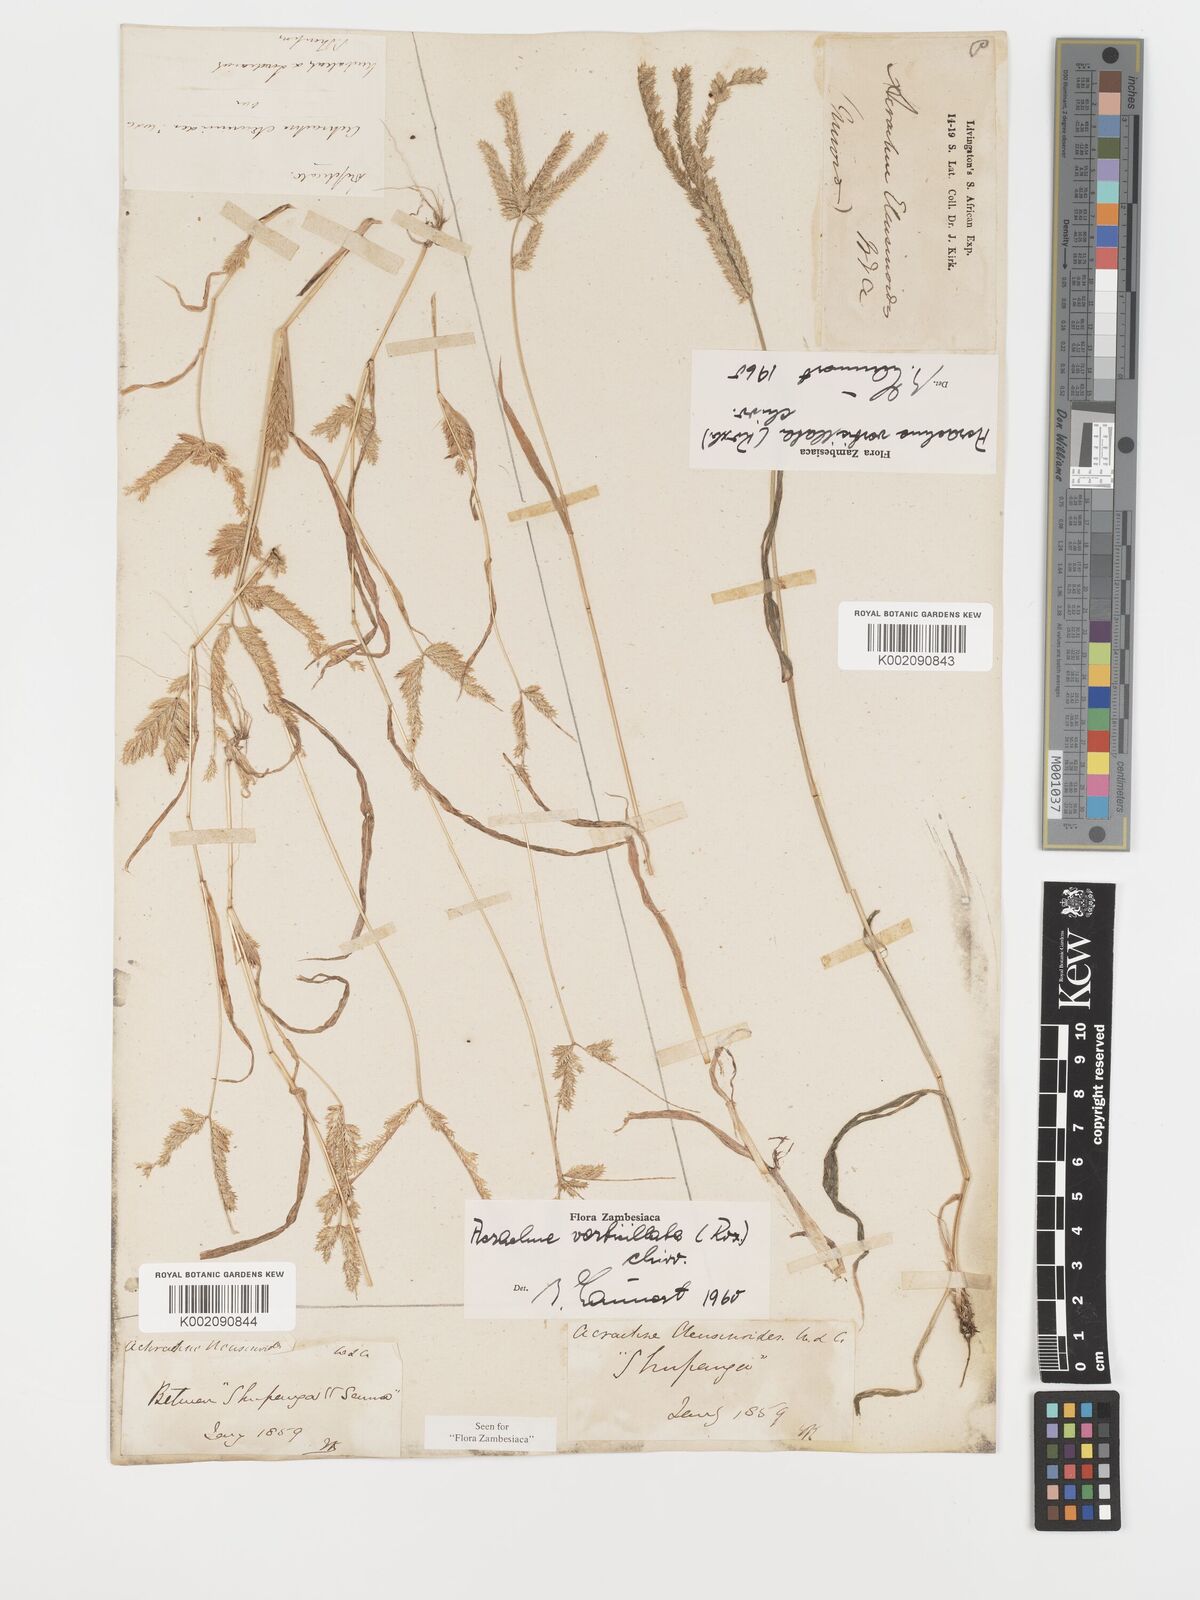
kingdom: Plantae
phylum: Tracheophyta
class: Liliopsida
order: Poales
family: Poaceae
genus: Acrachne
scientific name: Acrachne racemosa
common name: Goosegrass
